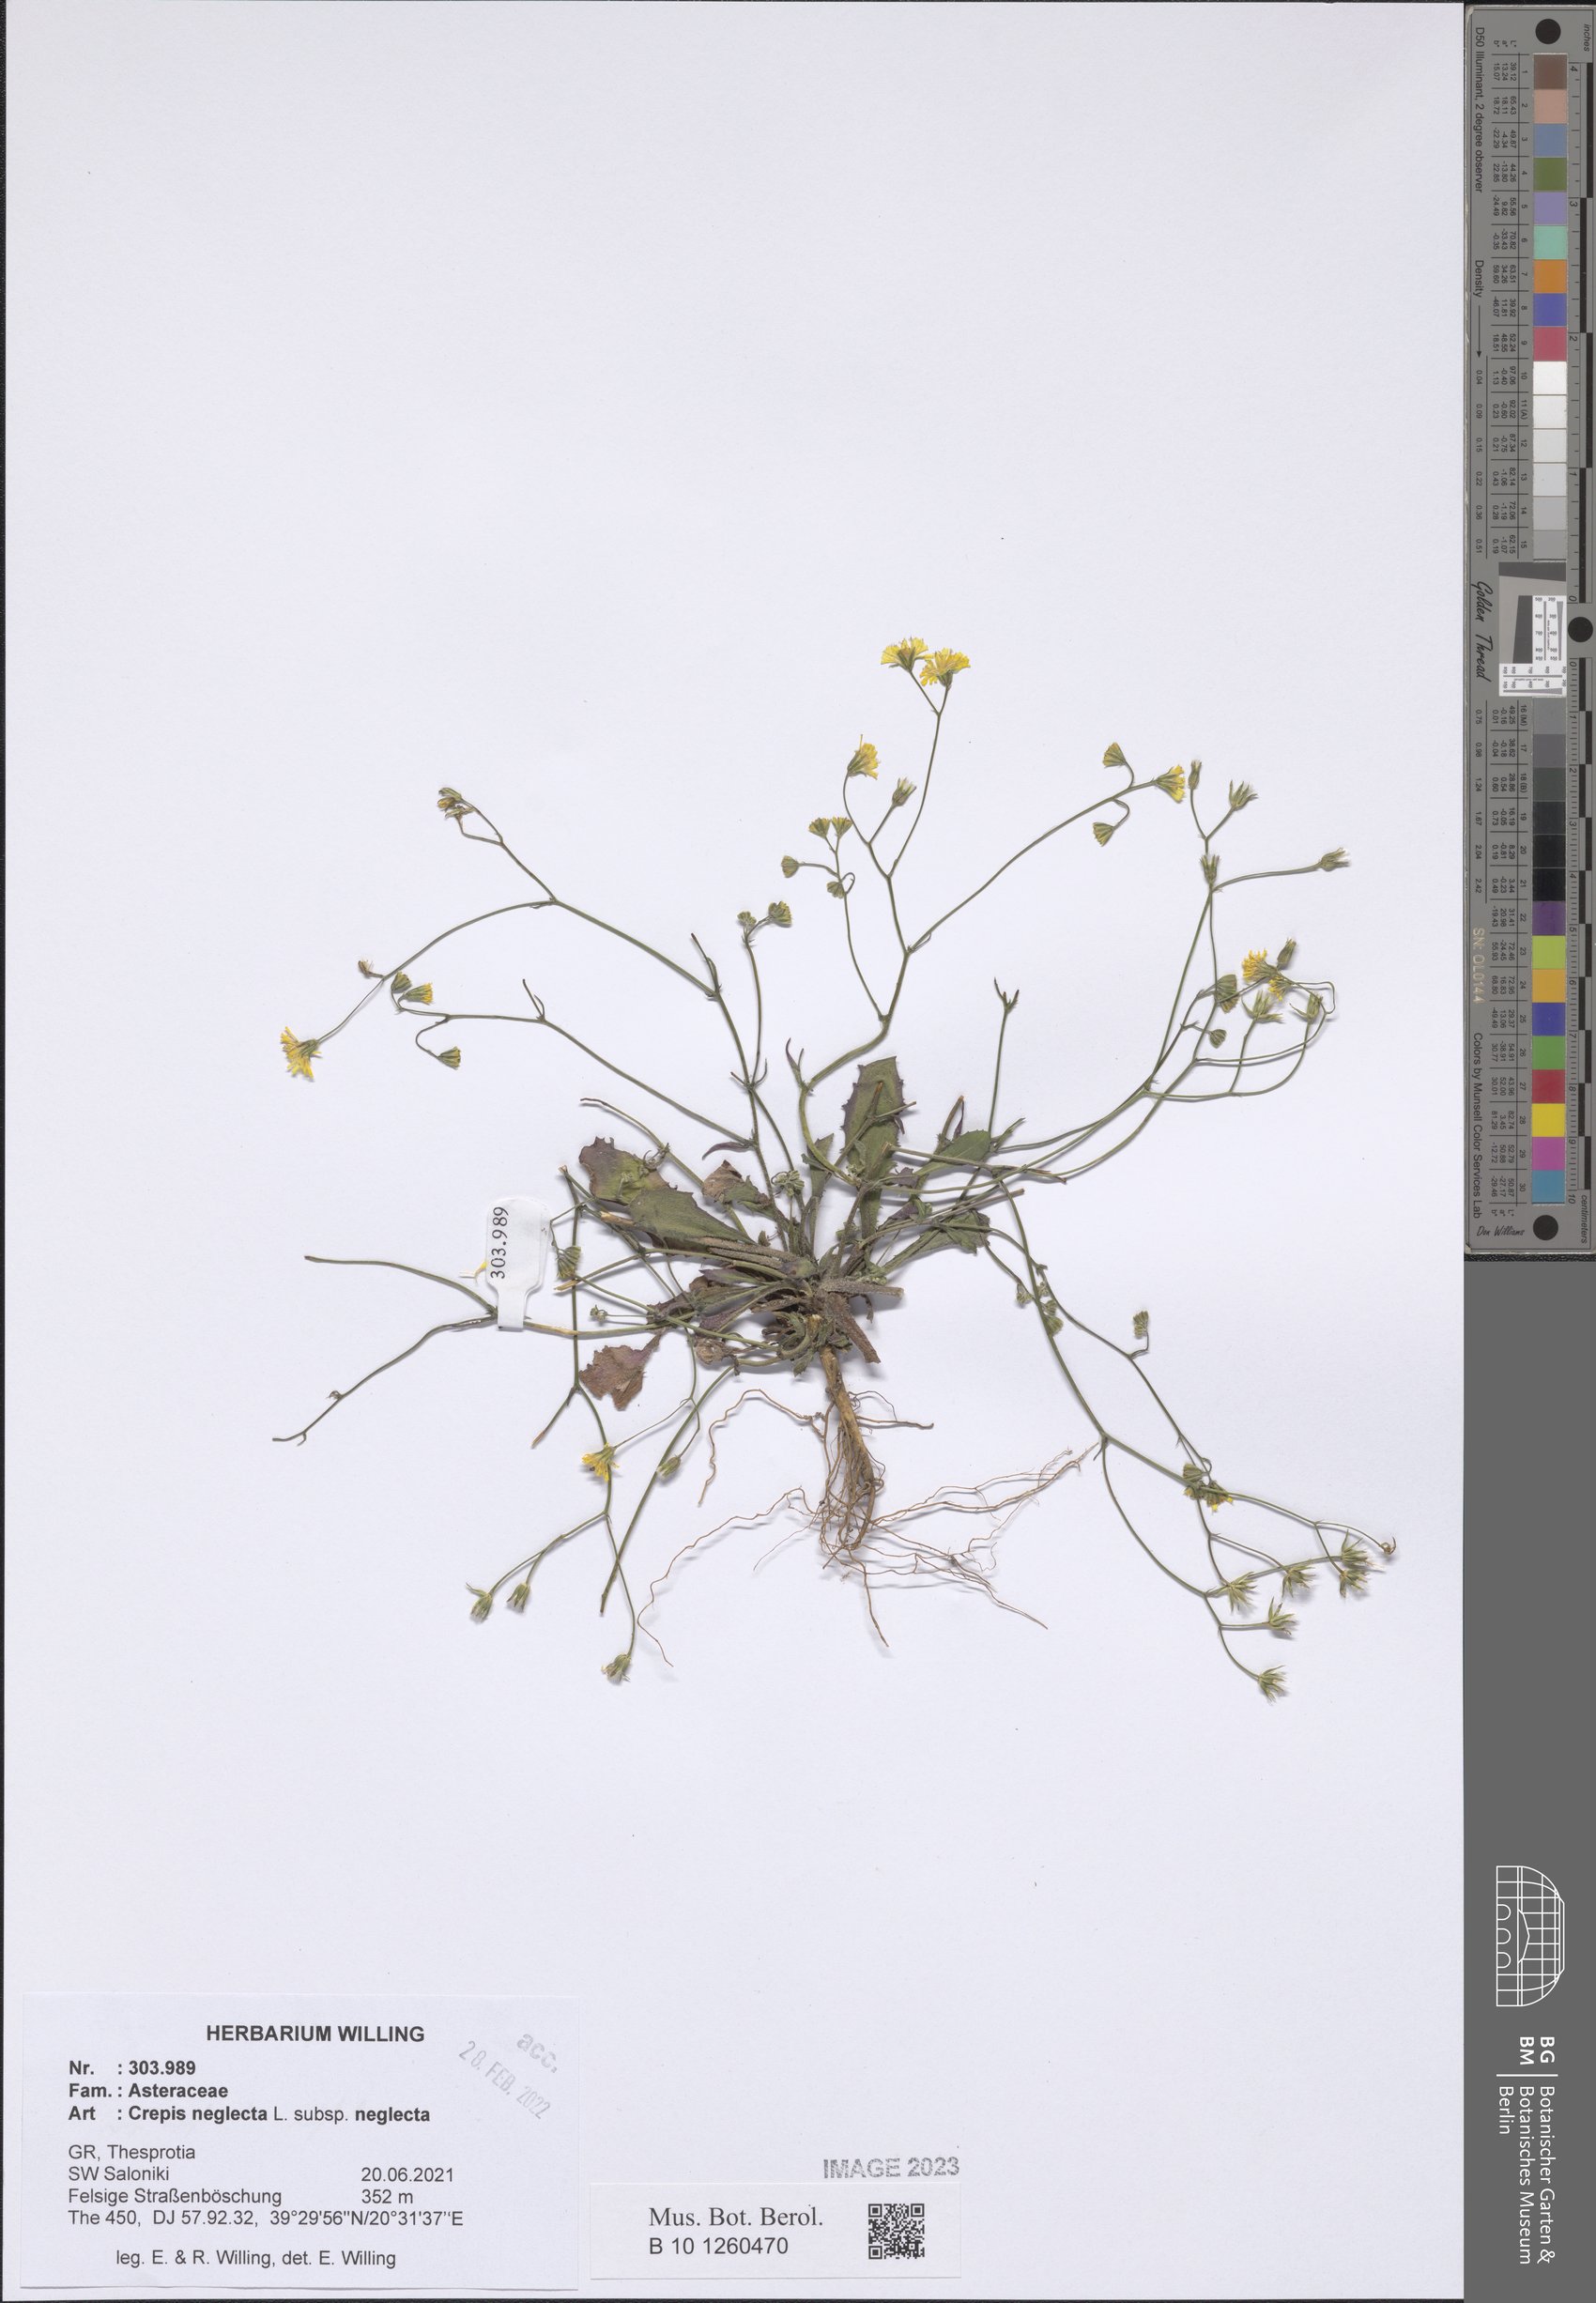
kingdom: Plantae
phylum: Tracheophyta
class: Magnoliopsida
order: Asterales
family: Asteraceae
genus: Crepis
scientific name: Crepis neglecta
